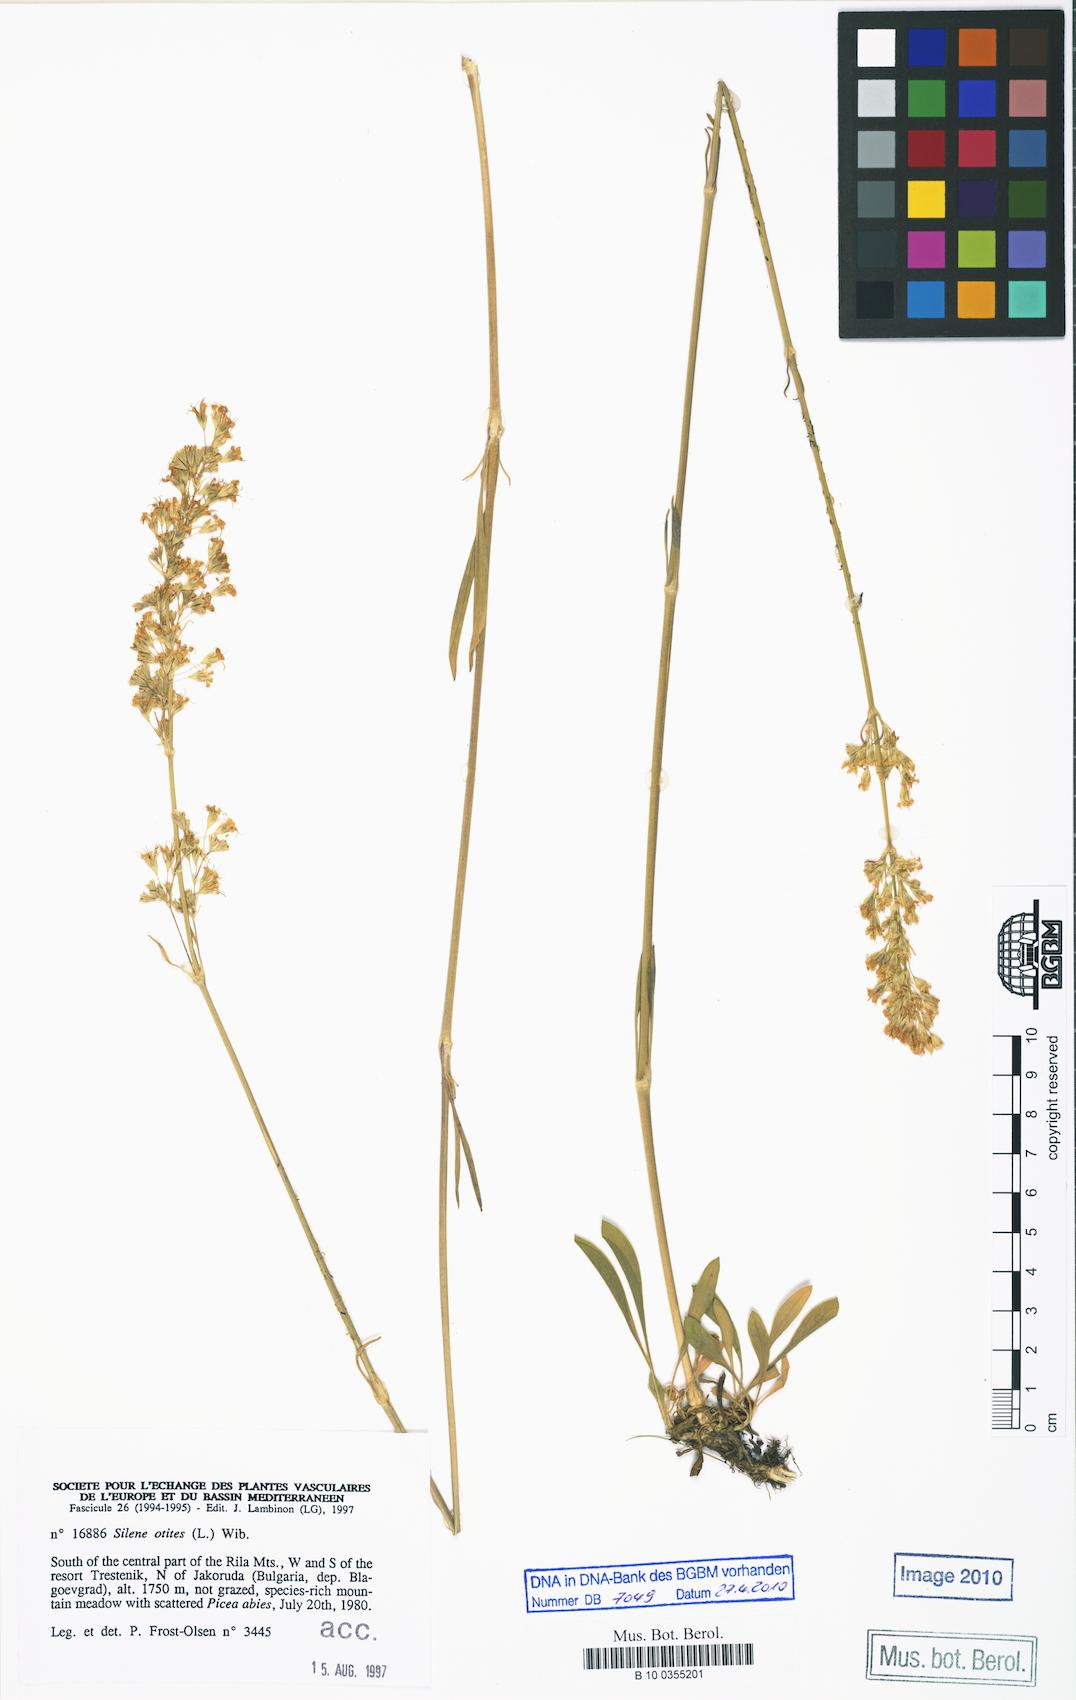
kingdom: Plantae
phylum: Tracheophyta
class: Magnoliopsida
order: Caryophyllales
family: Caryophyllaceae
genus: Silene
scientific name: Silene otites
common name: Spanish catchfly
